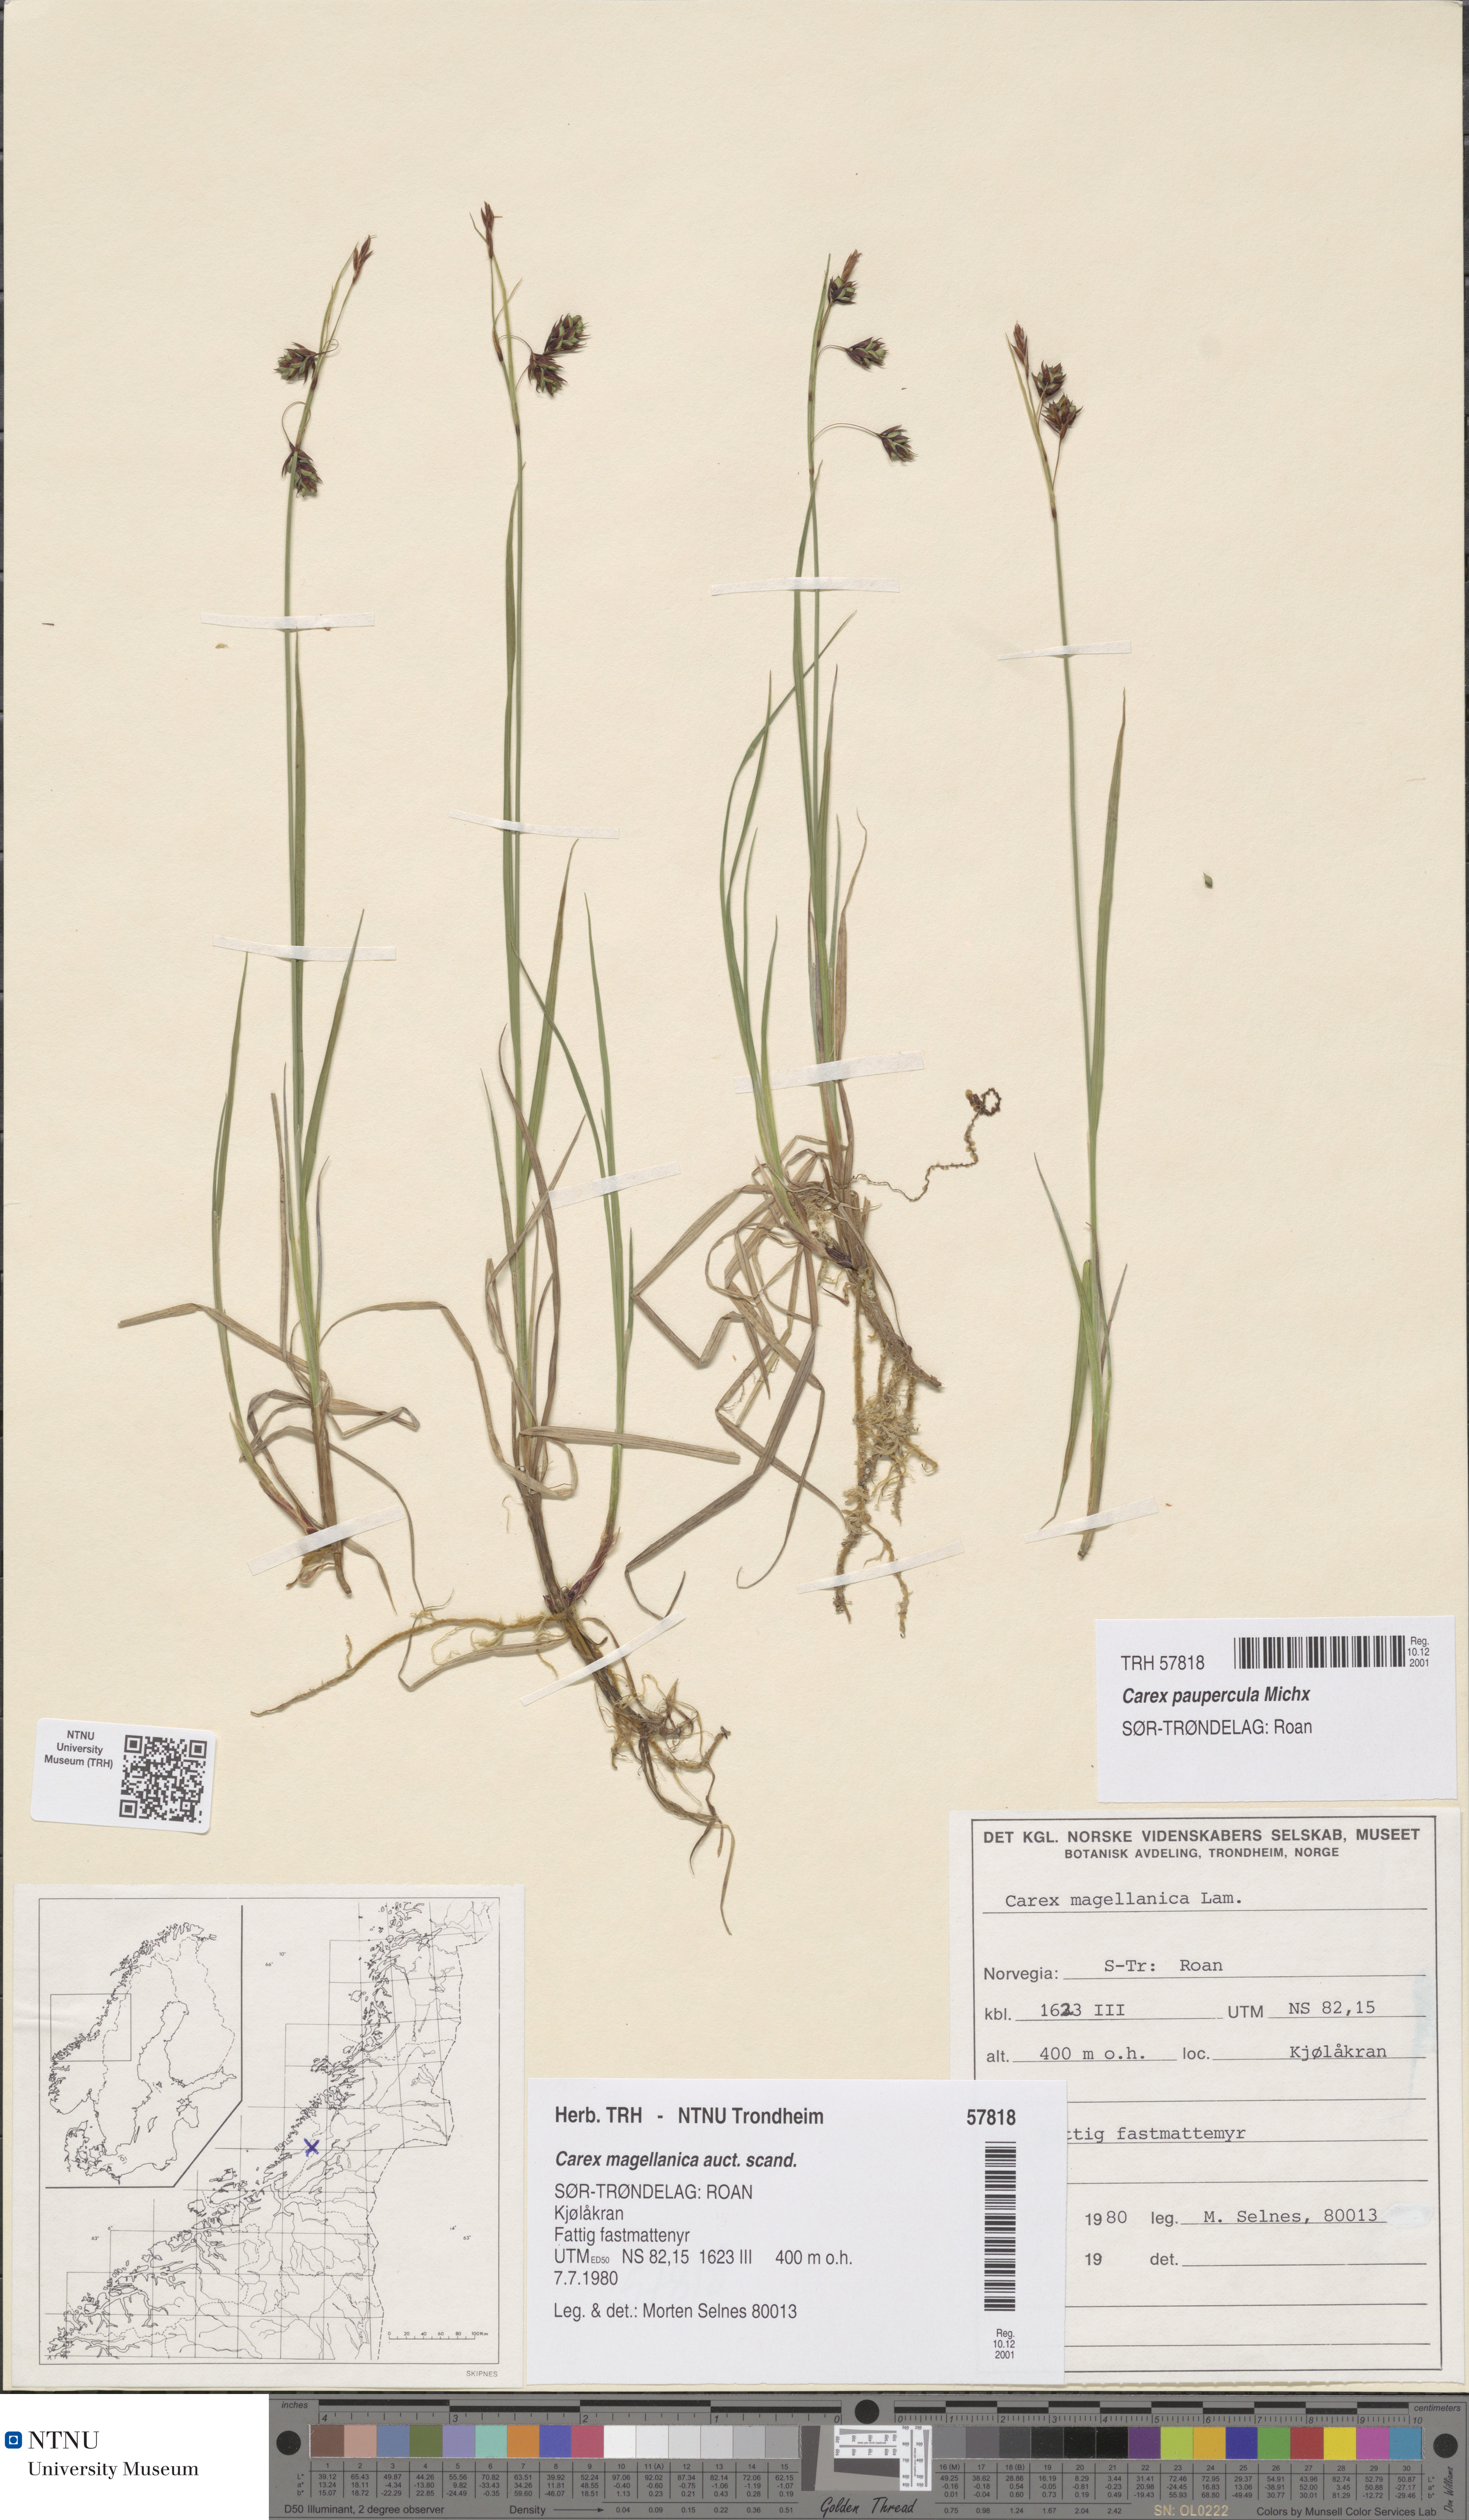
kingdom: Plantae
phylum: Tracheophyta
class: Liliopsida
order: Poales
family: Cyperaceae
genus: Carex
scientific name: Carex magellanica
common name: Bog sedge
